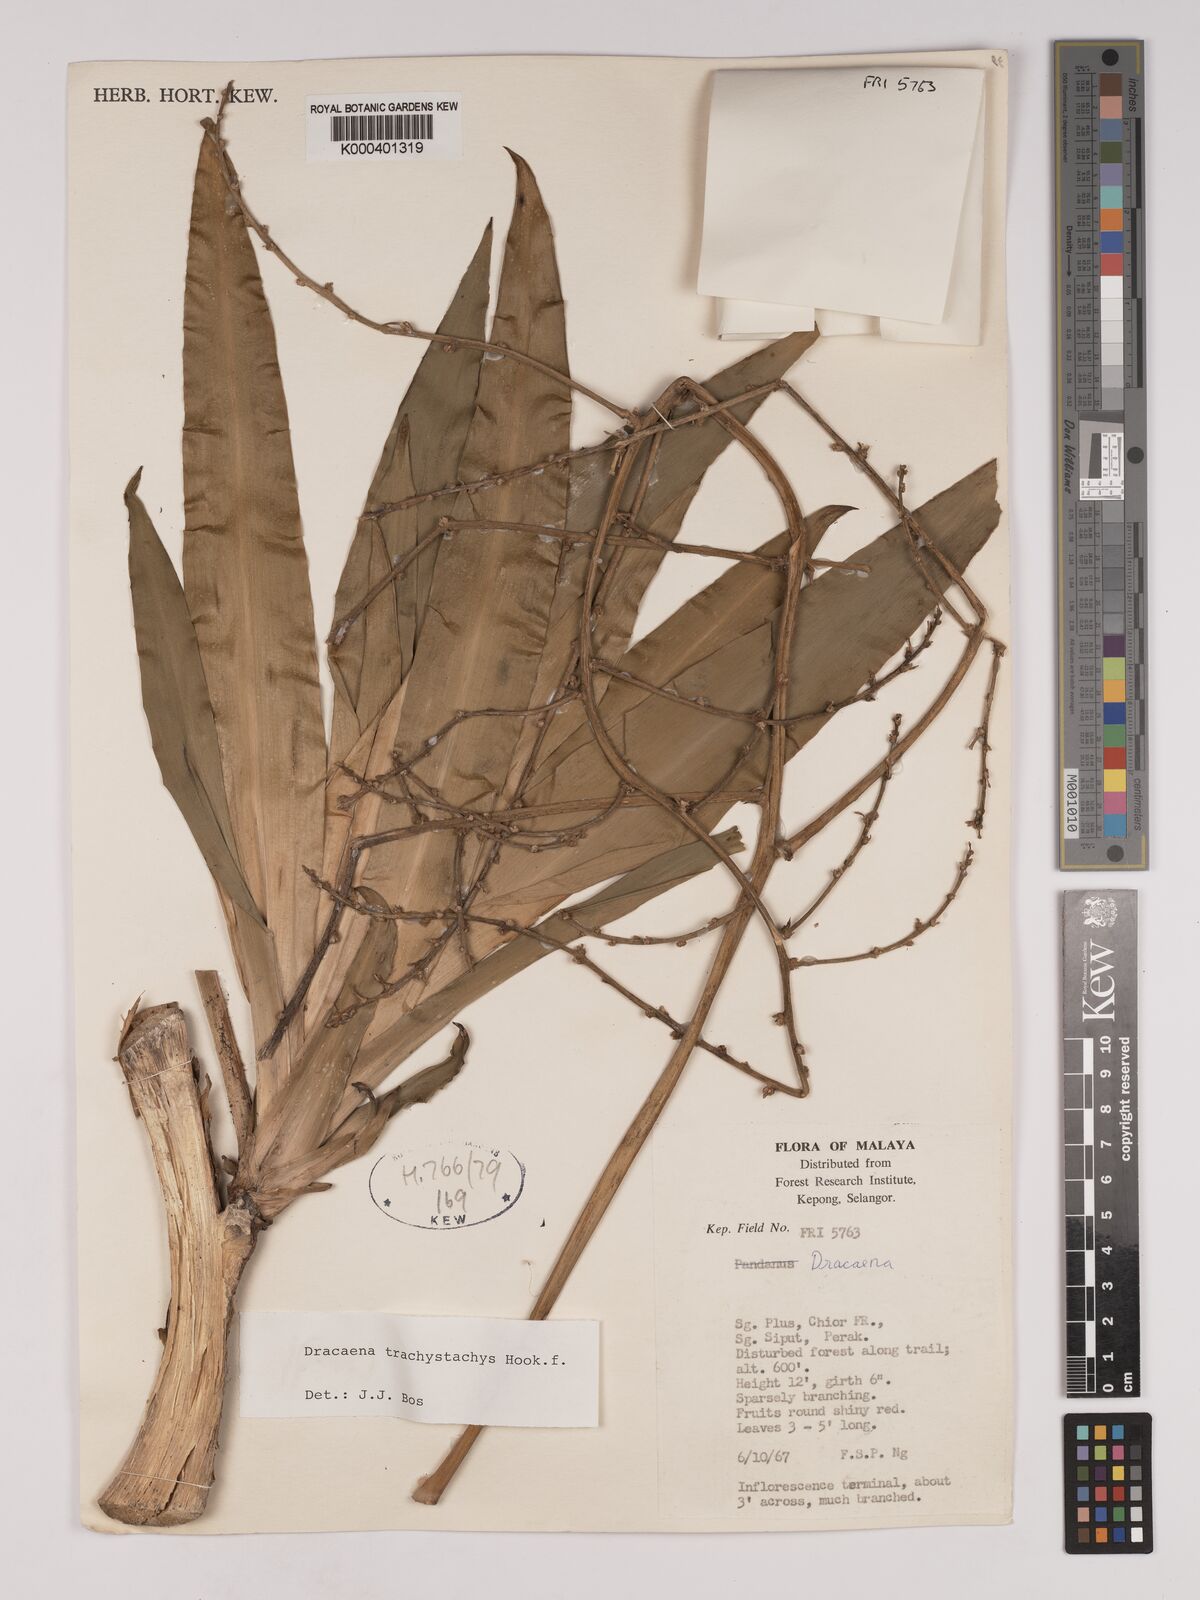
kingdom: Plantae
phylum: Tracheophyta
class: Liliopsida
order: Asparagales
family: Asparagaceae
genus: Dracaena
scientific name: Dracaena brachystachys
